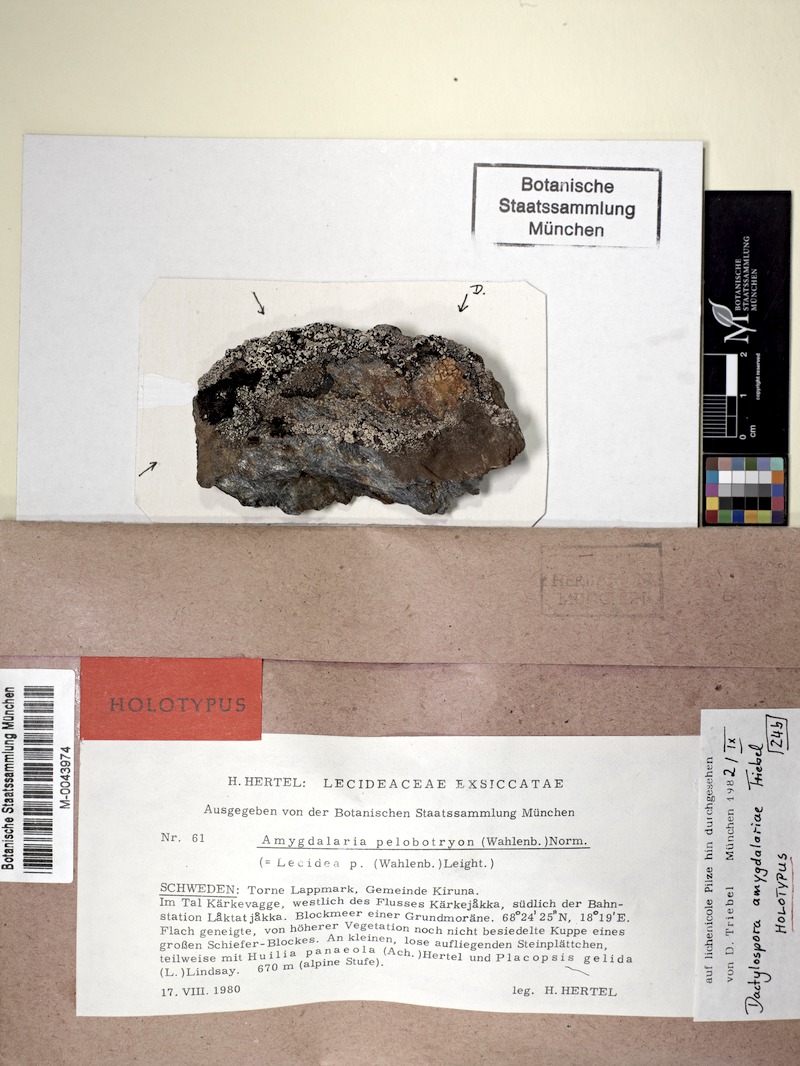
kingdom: Fungi
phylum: Ascomycota
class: Eurotiomycetes
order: Sclerococcales
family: Sclerococcaceae
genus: Sclerococcum
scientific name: Sclerococcum amygdalariae
